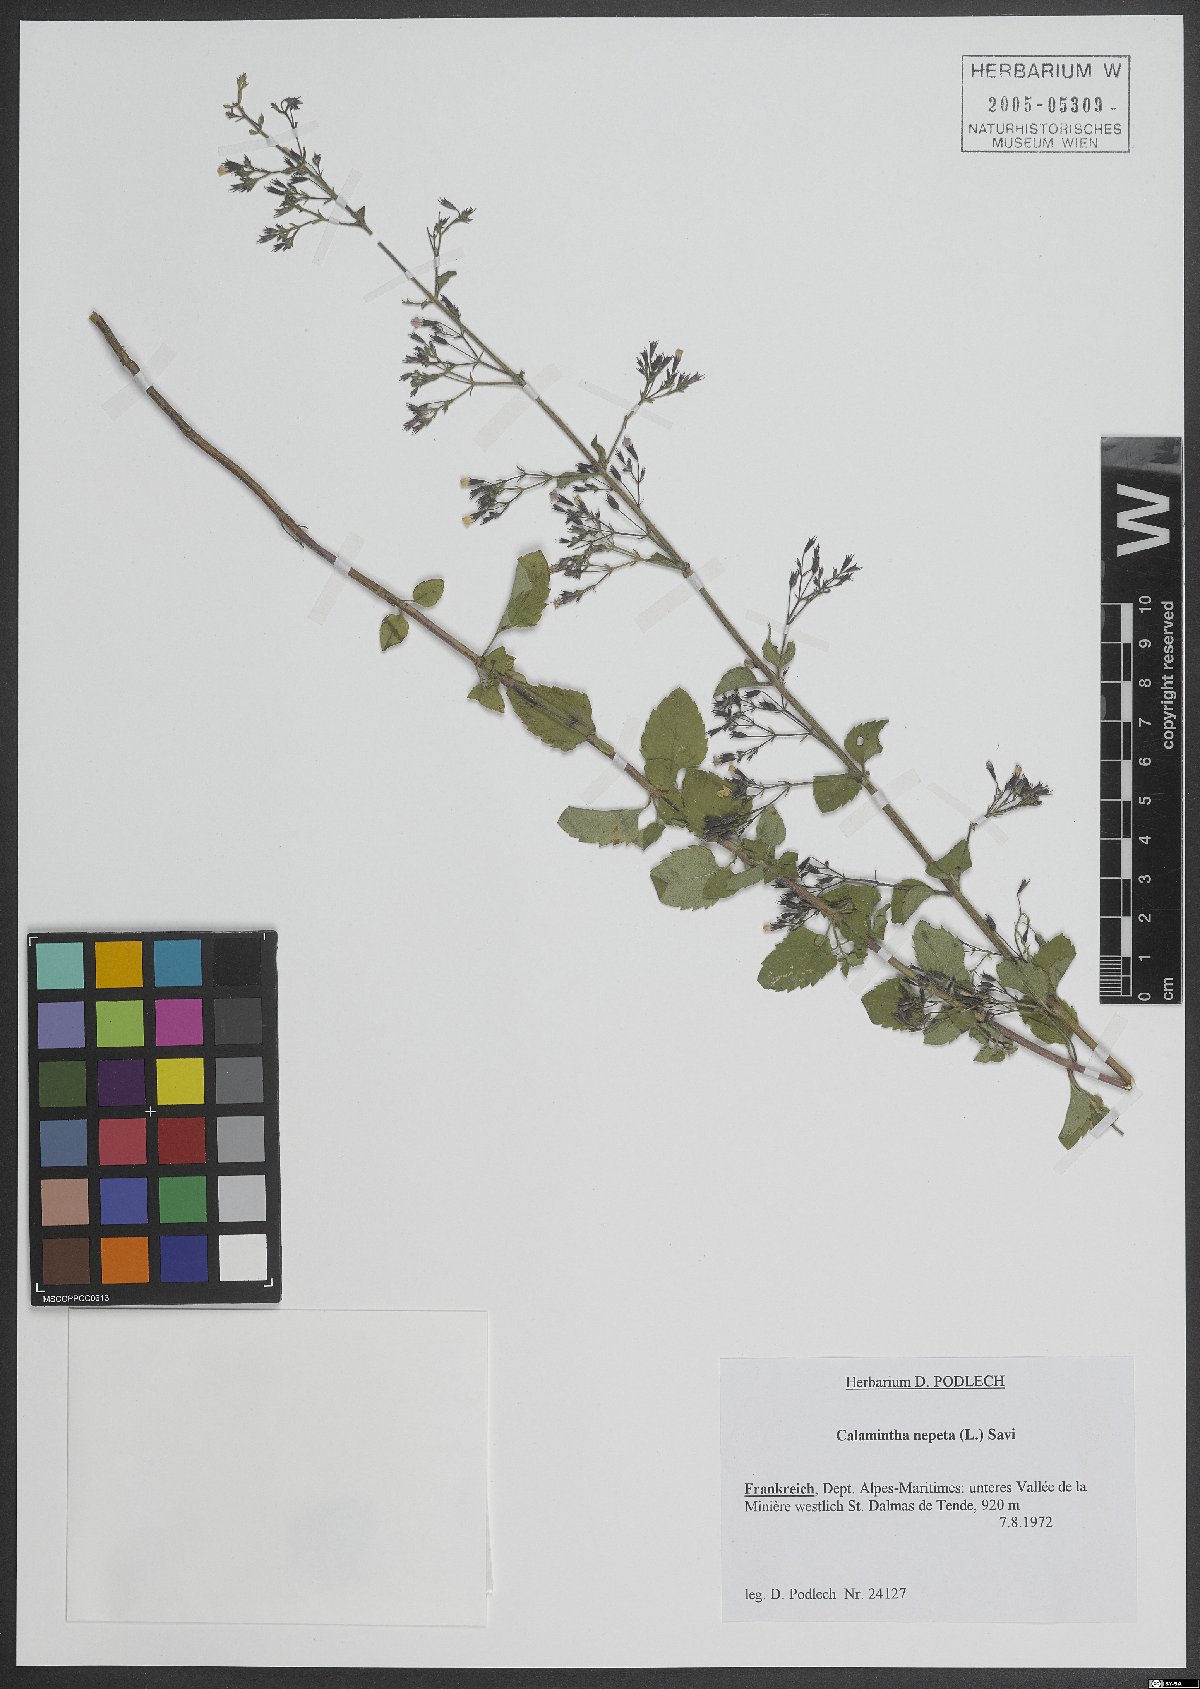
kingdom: Plantae
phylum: Tracheophyta
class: Magnoliopsida
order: Lamiales
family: Lamiaceae
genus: Clinopodium
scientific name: Clinopodium nepeta
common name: Lesser calamint
